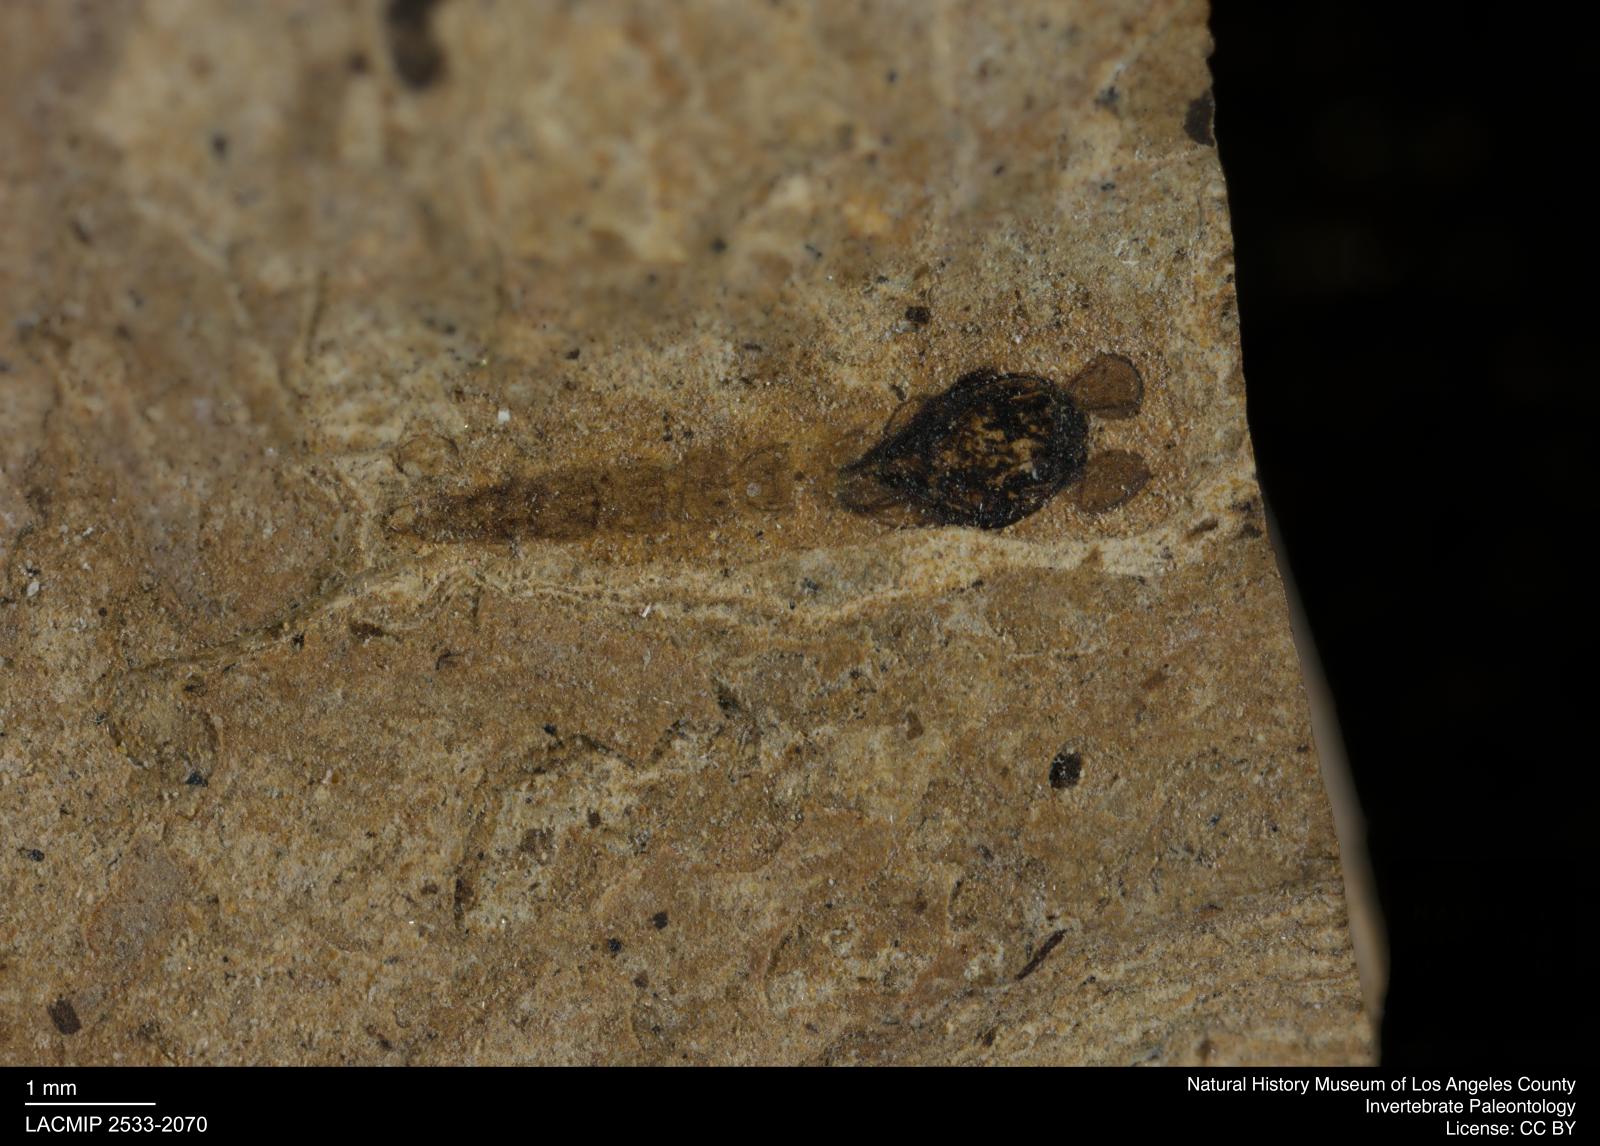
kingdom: Animalia
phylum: Arthropoda
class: Insecta
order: Diptera
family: Chironomidae
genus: Pelopiina
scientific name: Pelopiina
